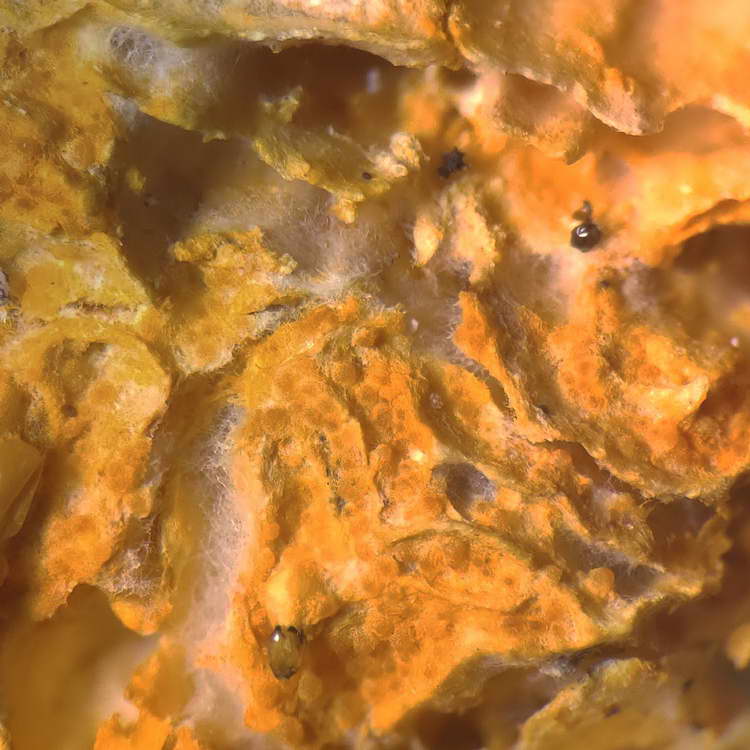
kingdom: Fungi
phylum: Ascomycota
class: Sordariomycetes
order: Hypocreales
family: Hypocreaceae
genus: Hypomyces
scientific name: Hypomyces aurantius
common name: almindelig snylteskorpe
